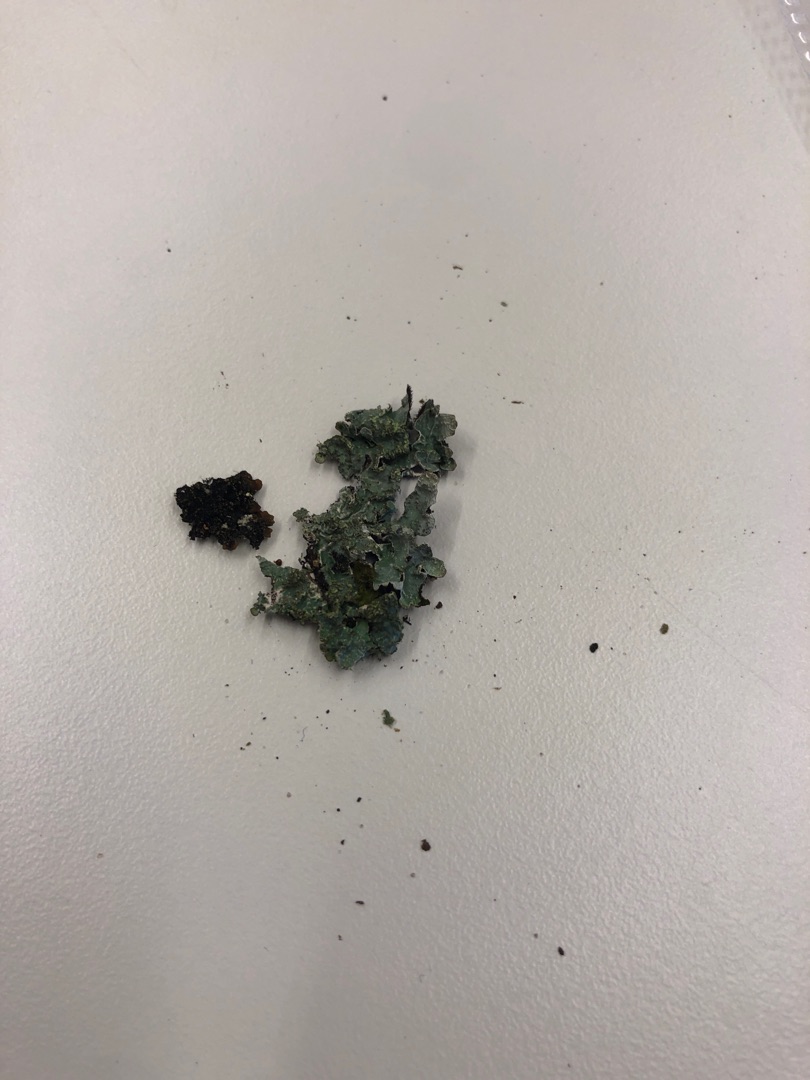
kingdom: Fungi
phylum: Ascomycota
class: Lecanoromycetes
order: Lecanorales
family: Parmeliaceae
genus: Parmelia
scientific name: Parmelia sulcata
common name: Rynket skållav
